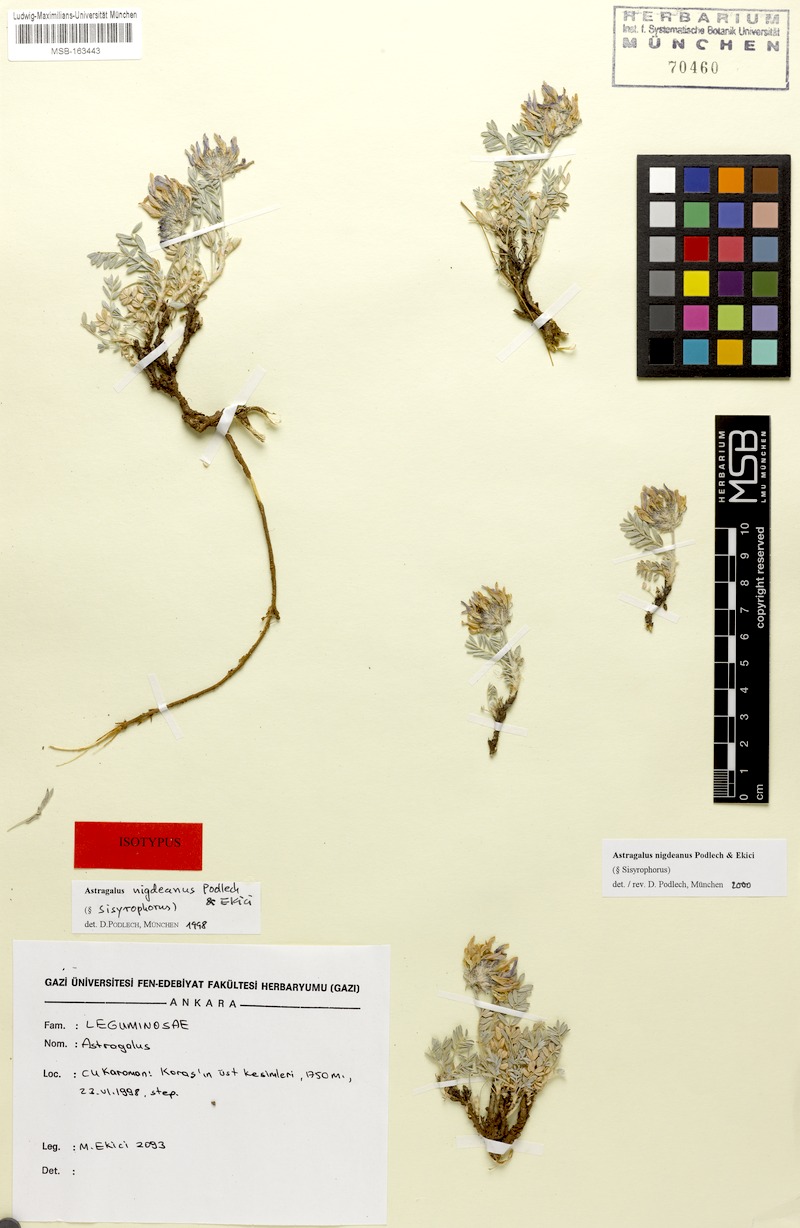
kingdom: Plantae
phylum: Tracheophyta
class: Magnoliopsida
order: Fabales
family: Fabaceae
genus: Astragalus
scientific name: Astragalus nigdeanus
